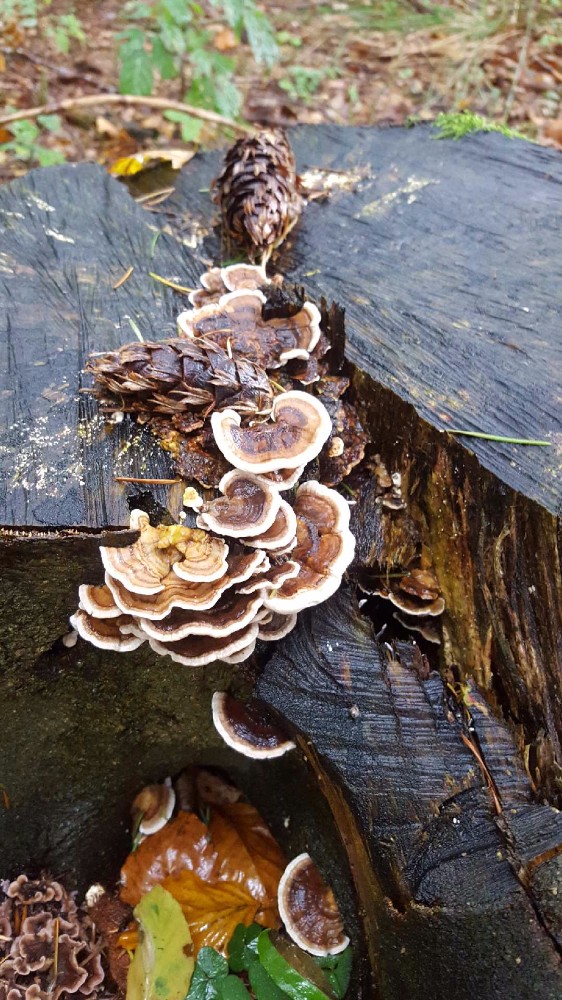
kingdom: Fungi
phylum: Basidiomycota
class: Agaricomycetes
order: Polyporales
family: Polyporaceae
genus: Trametes
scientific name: Trametes versicolor
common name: broget læderporesvamp
